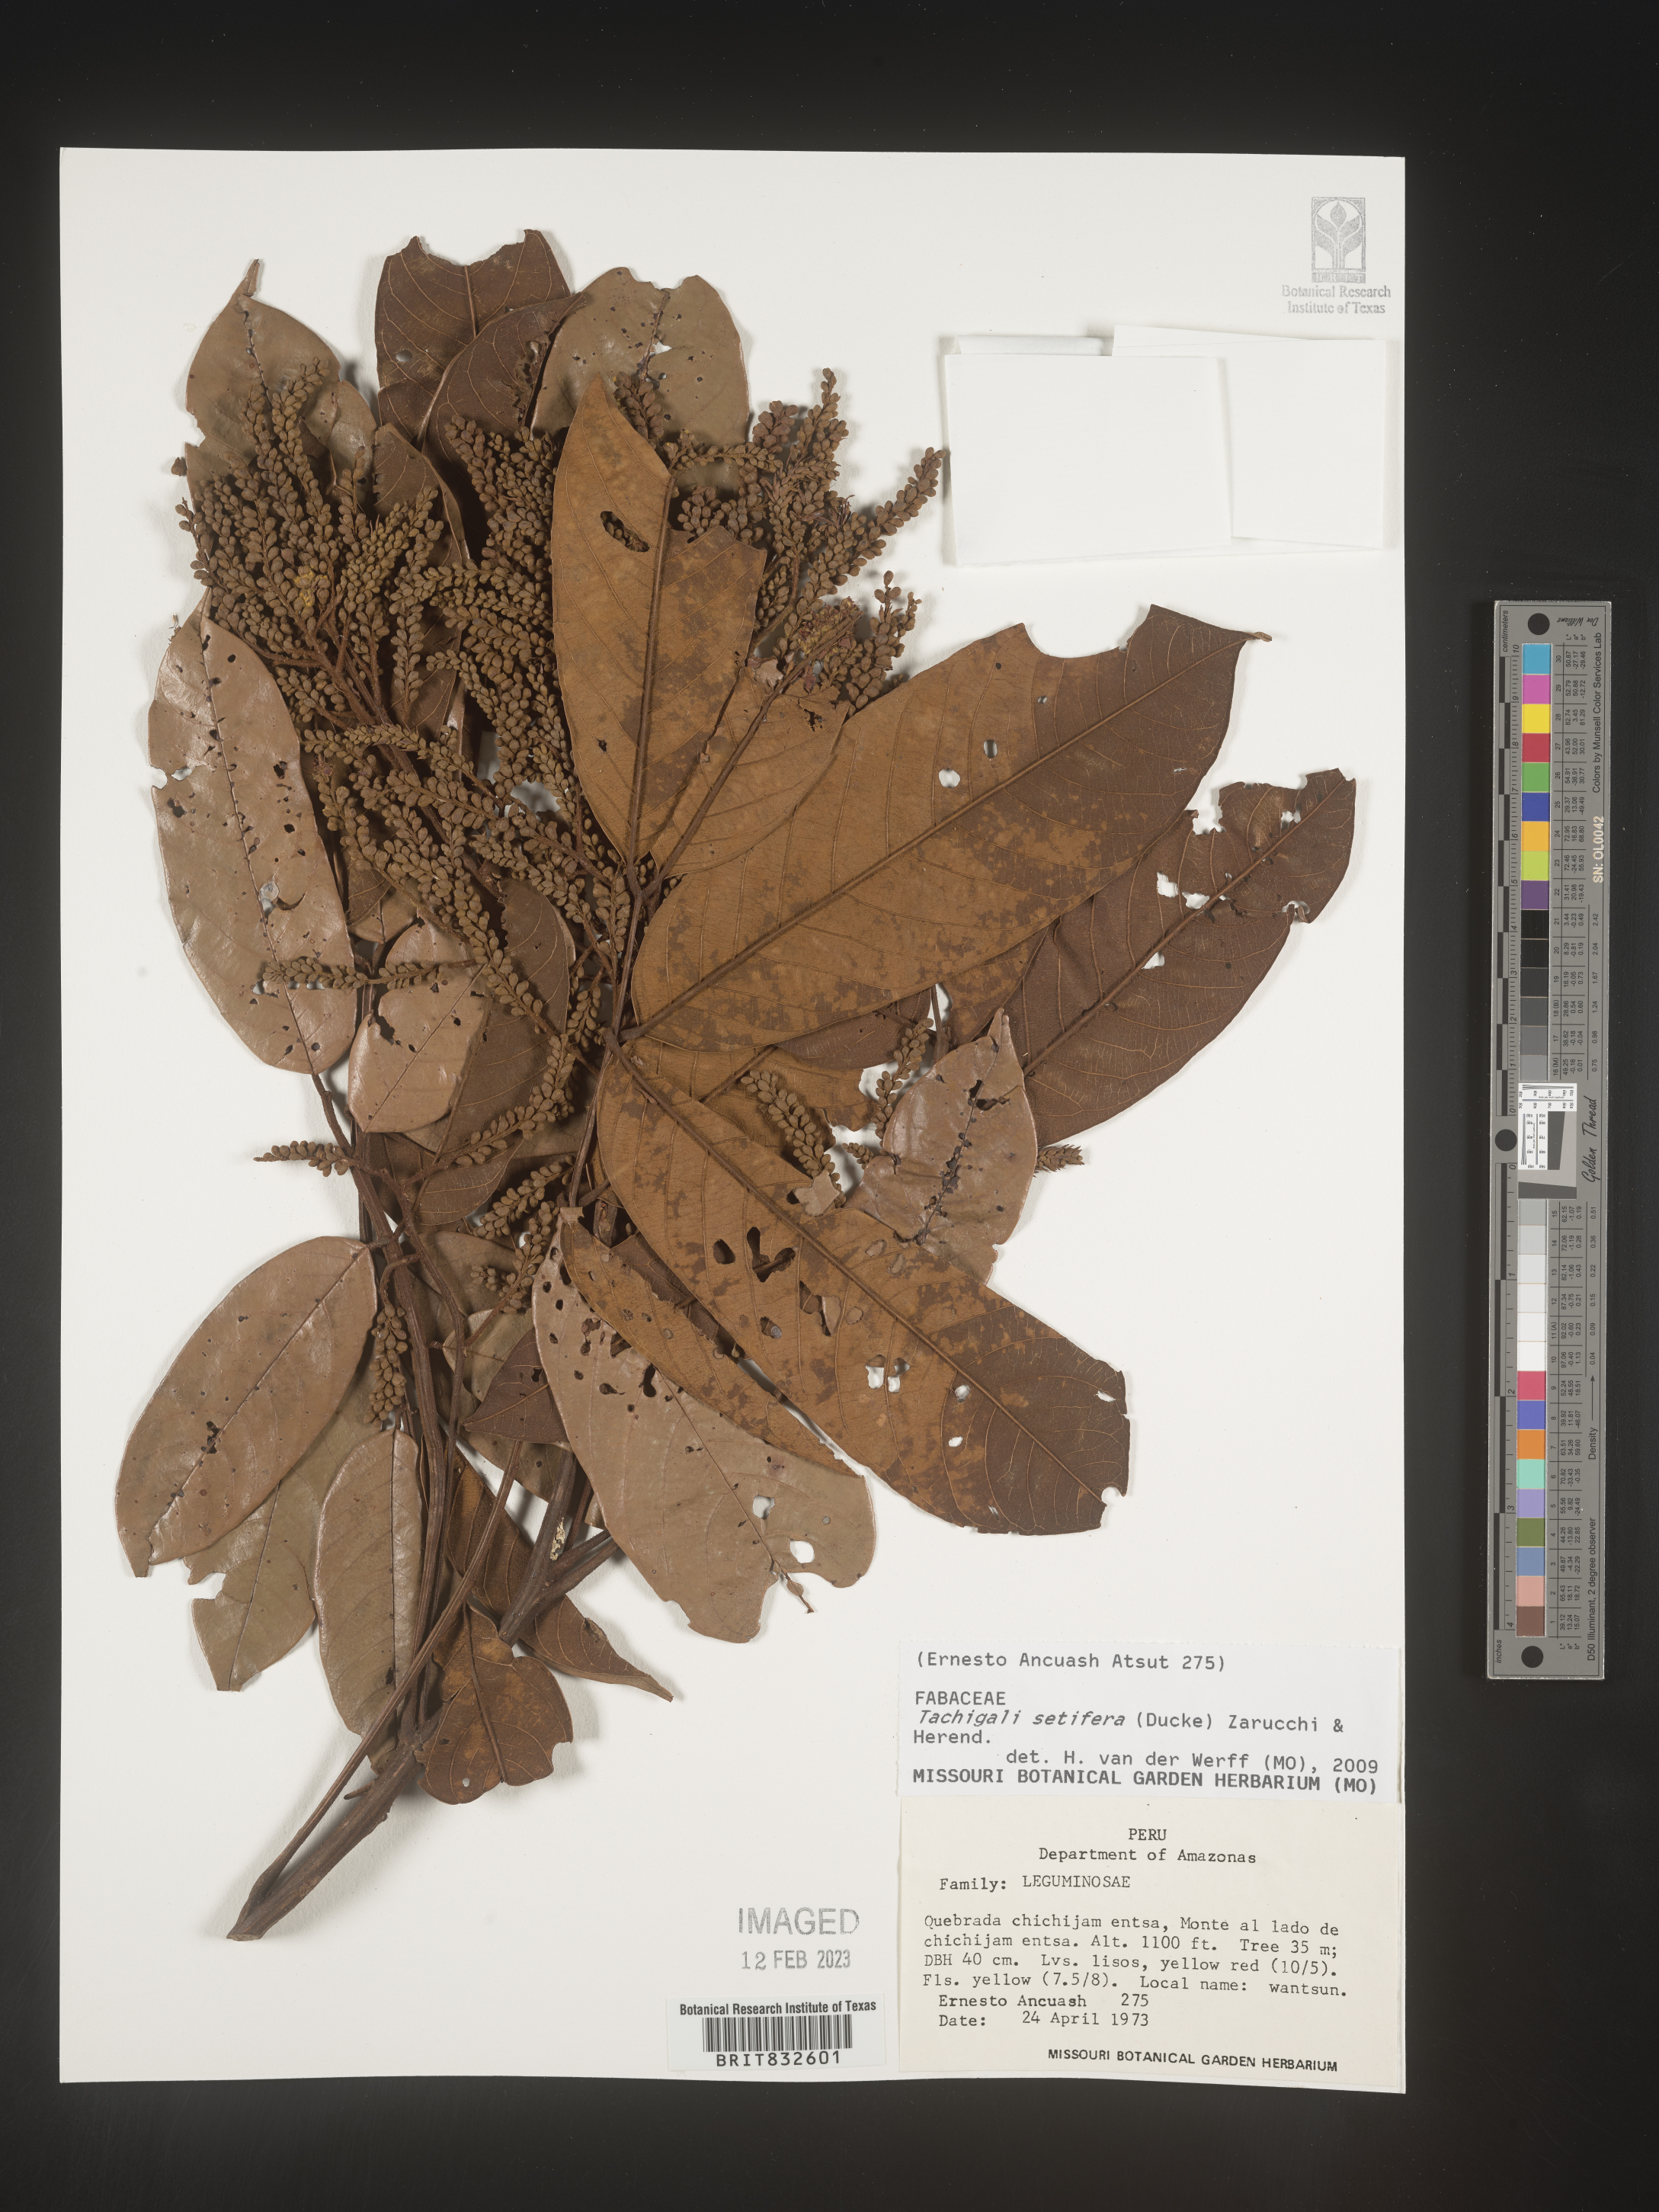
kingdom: Plantae
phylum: Tracheophyta
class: Magnoliopsida
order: Fabales
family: Fabaceae
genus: Tachigali
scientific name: Tachigali
